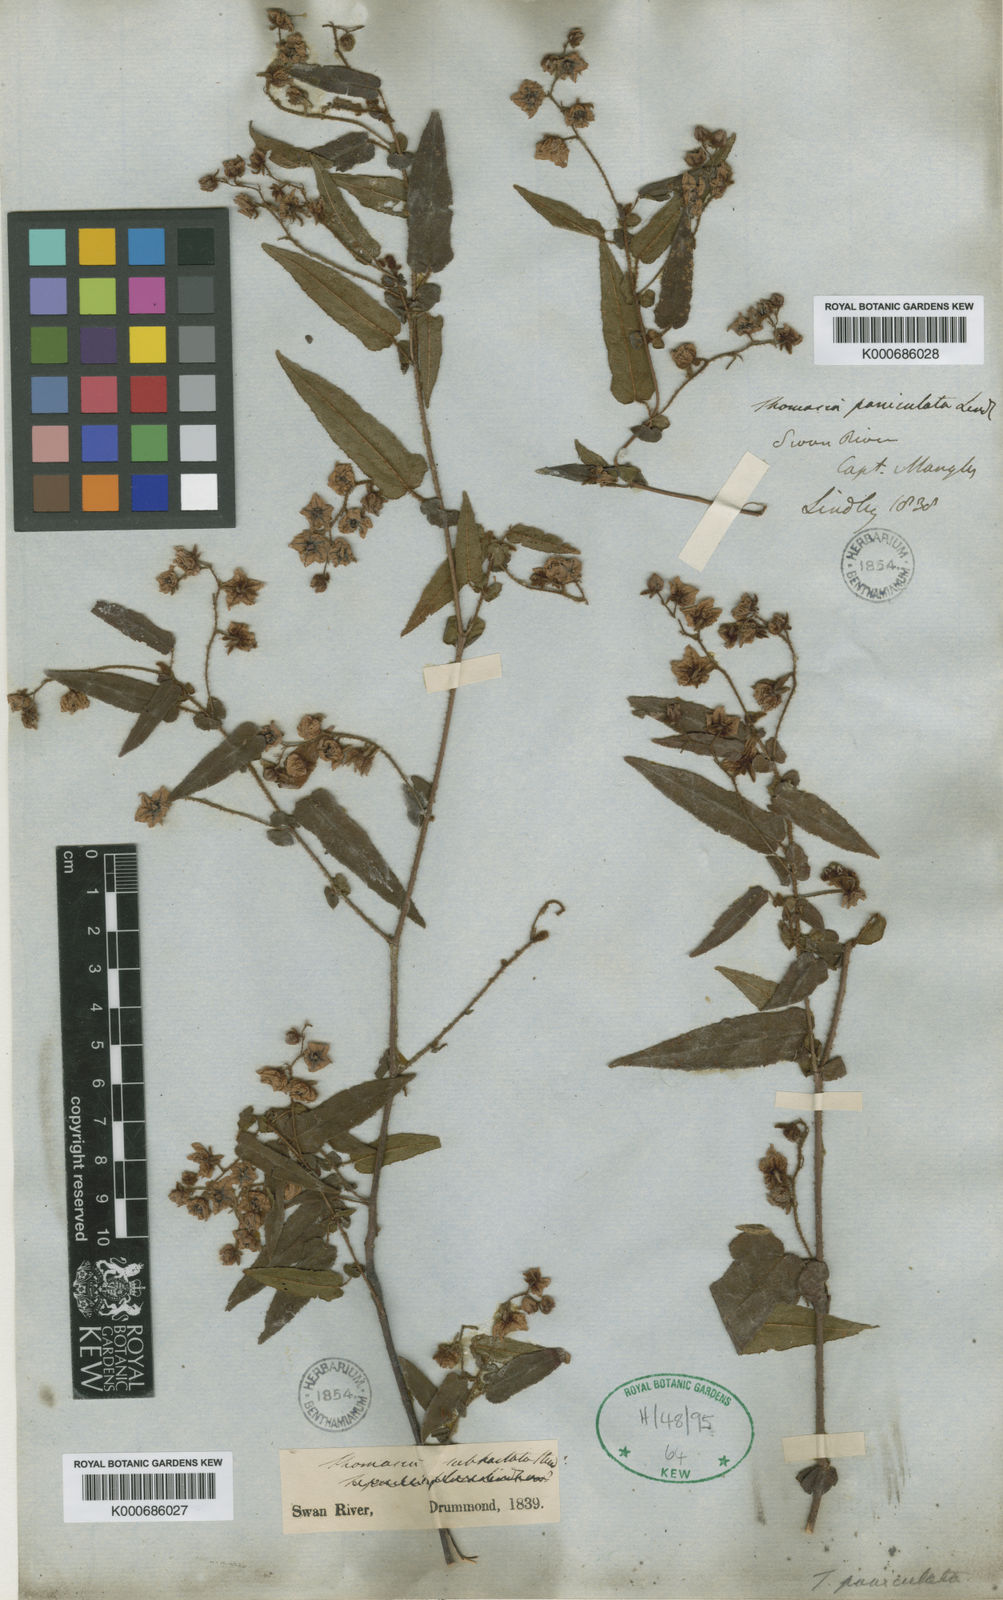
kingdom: Plantae
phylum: Tracheophyta
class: Magnoliopsida
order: Malvales
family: Malvaceae
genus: Thomasia
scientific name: Thomasia pauciflora
